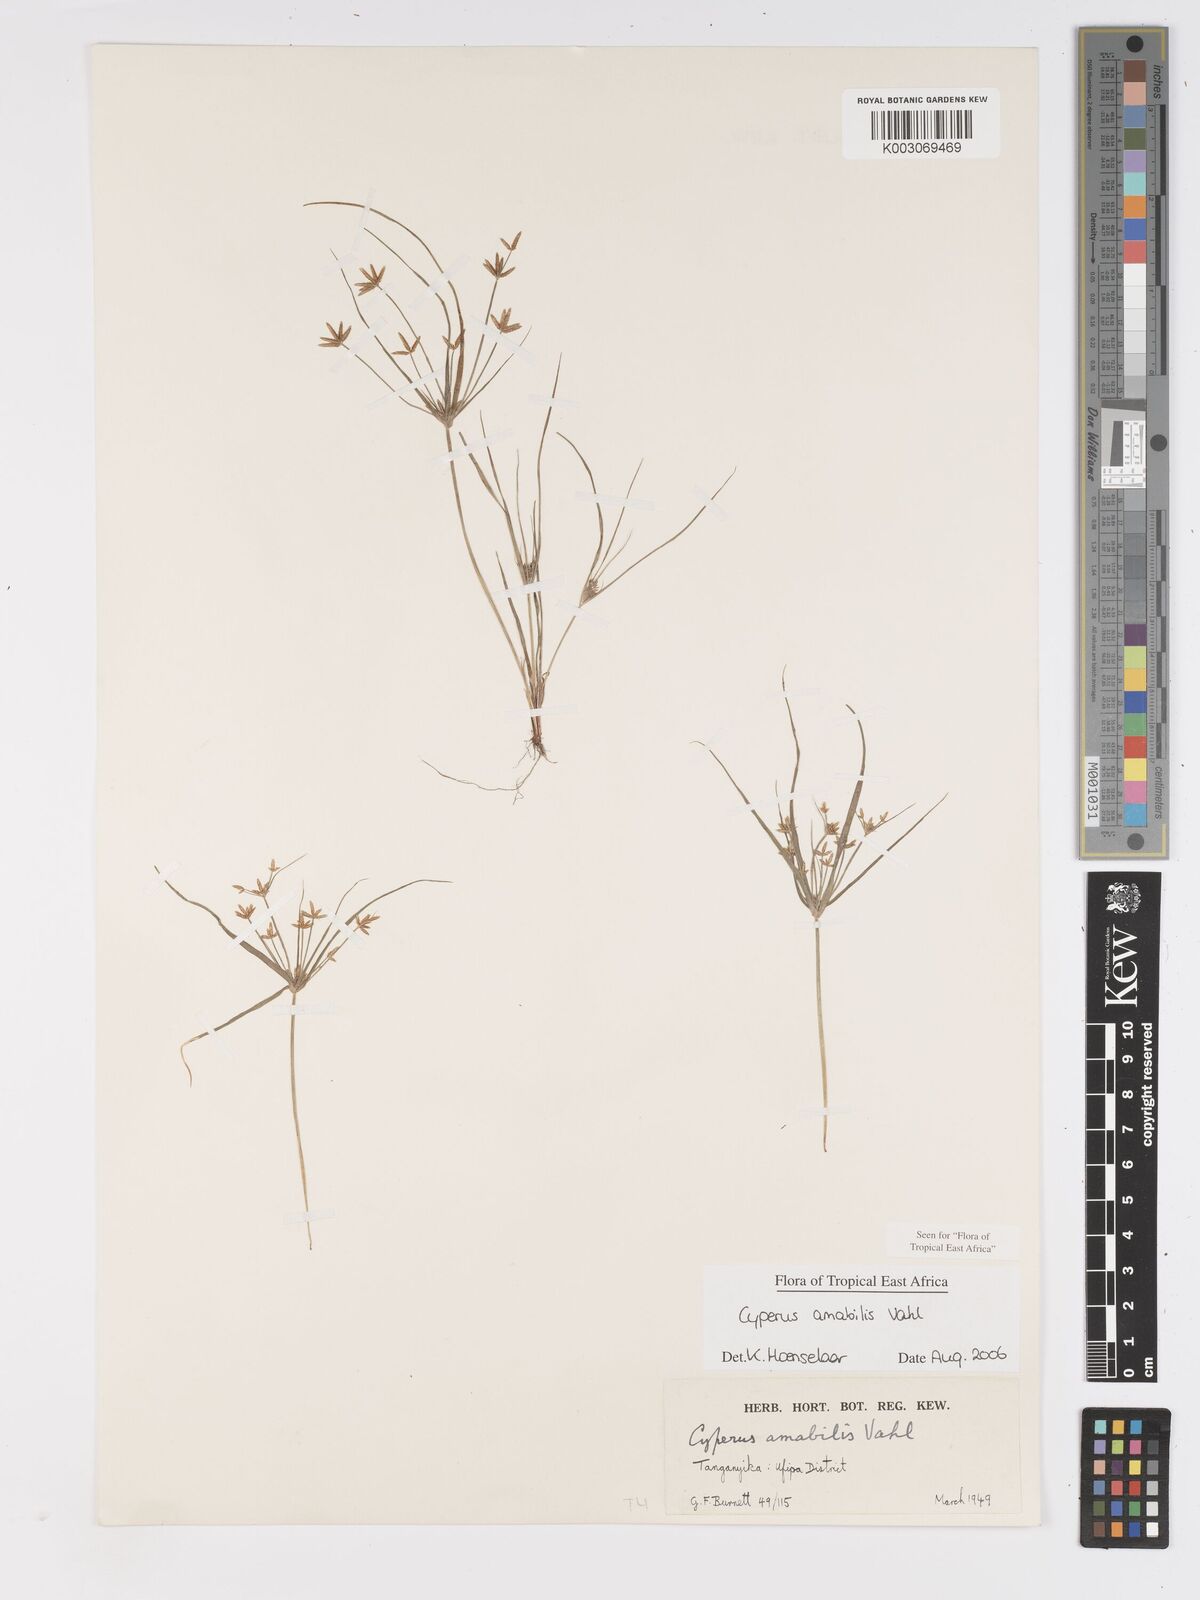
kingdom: Plantae
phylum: Tracheophyta
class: Liliopsida
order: Poales
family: Cyperaceae
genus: Cyperus
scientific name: Cyperus amabilis
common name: Foothill flat sedge
